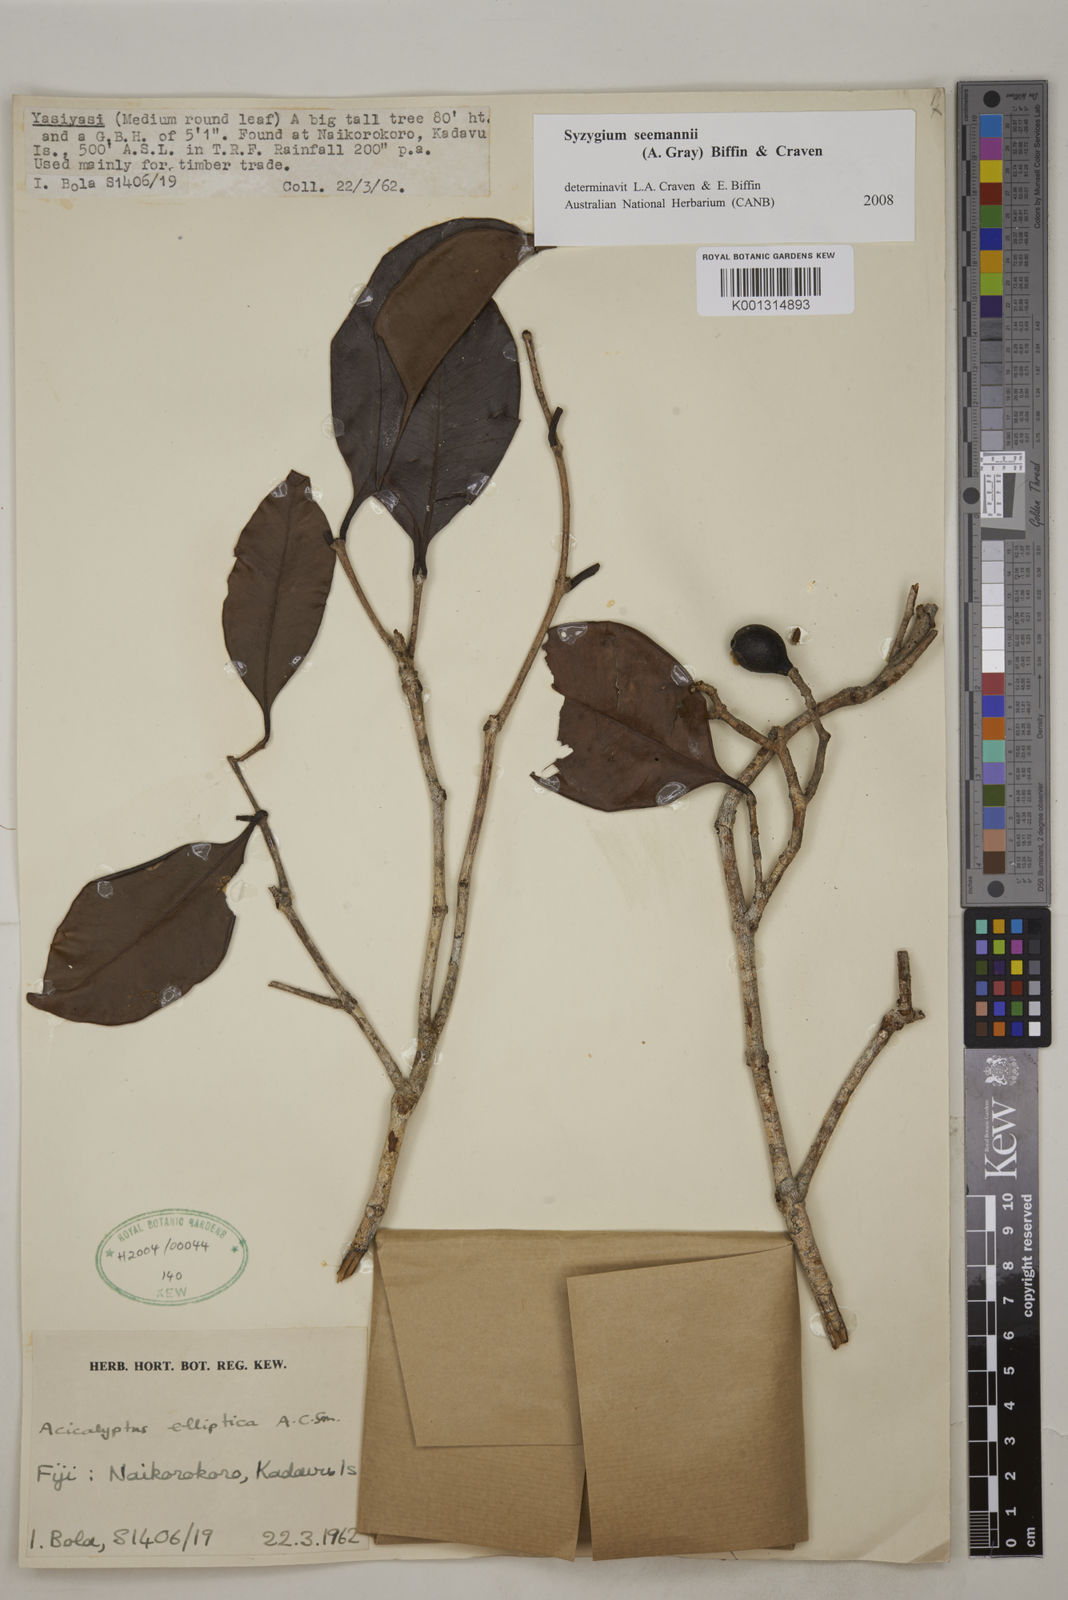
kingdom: Plantae
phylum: Tracheophyta
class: Magnoliopsida
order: Myrtales
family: Myrtaceae
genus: Syzygium
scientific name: Syzygium seemannii
